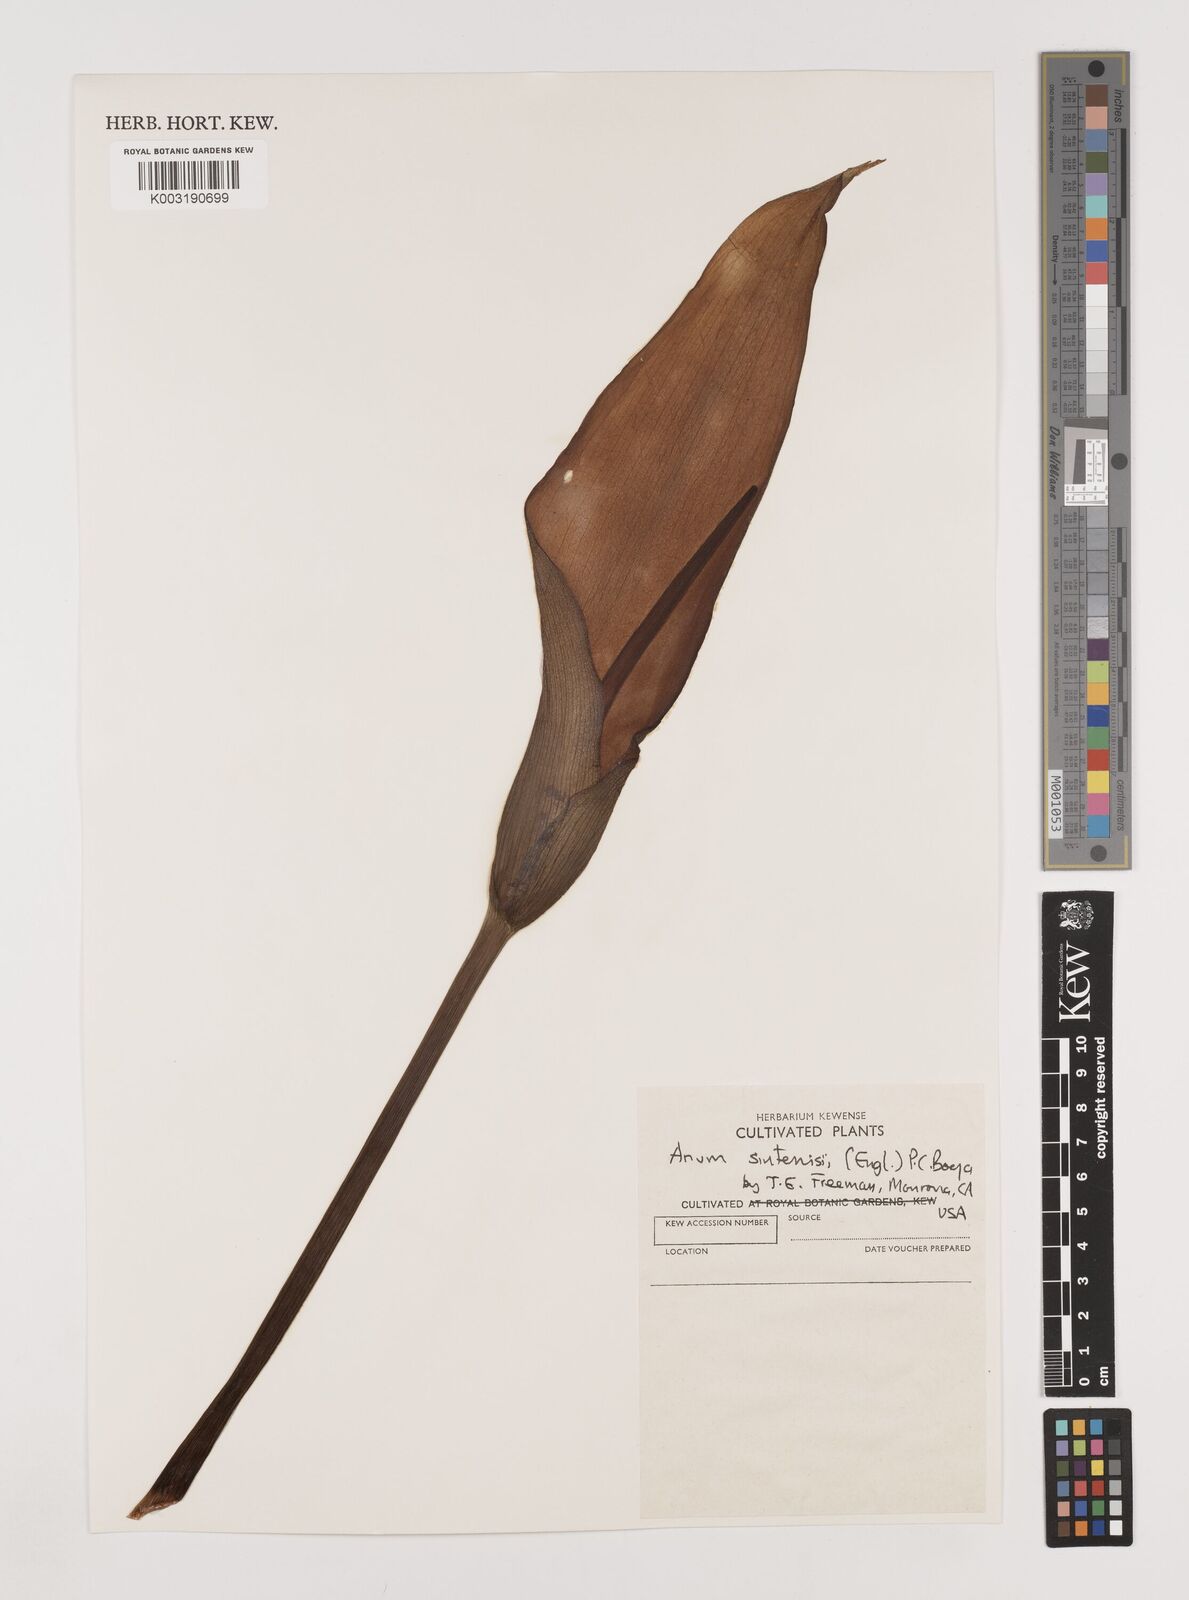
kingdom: Plantae
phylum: Tracheophyta
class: Liliopsida
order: Alismatales
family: Araceae
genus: Arum
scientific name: Arum sintenisii
